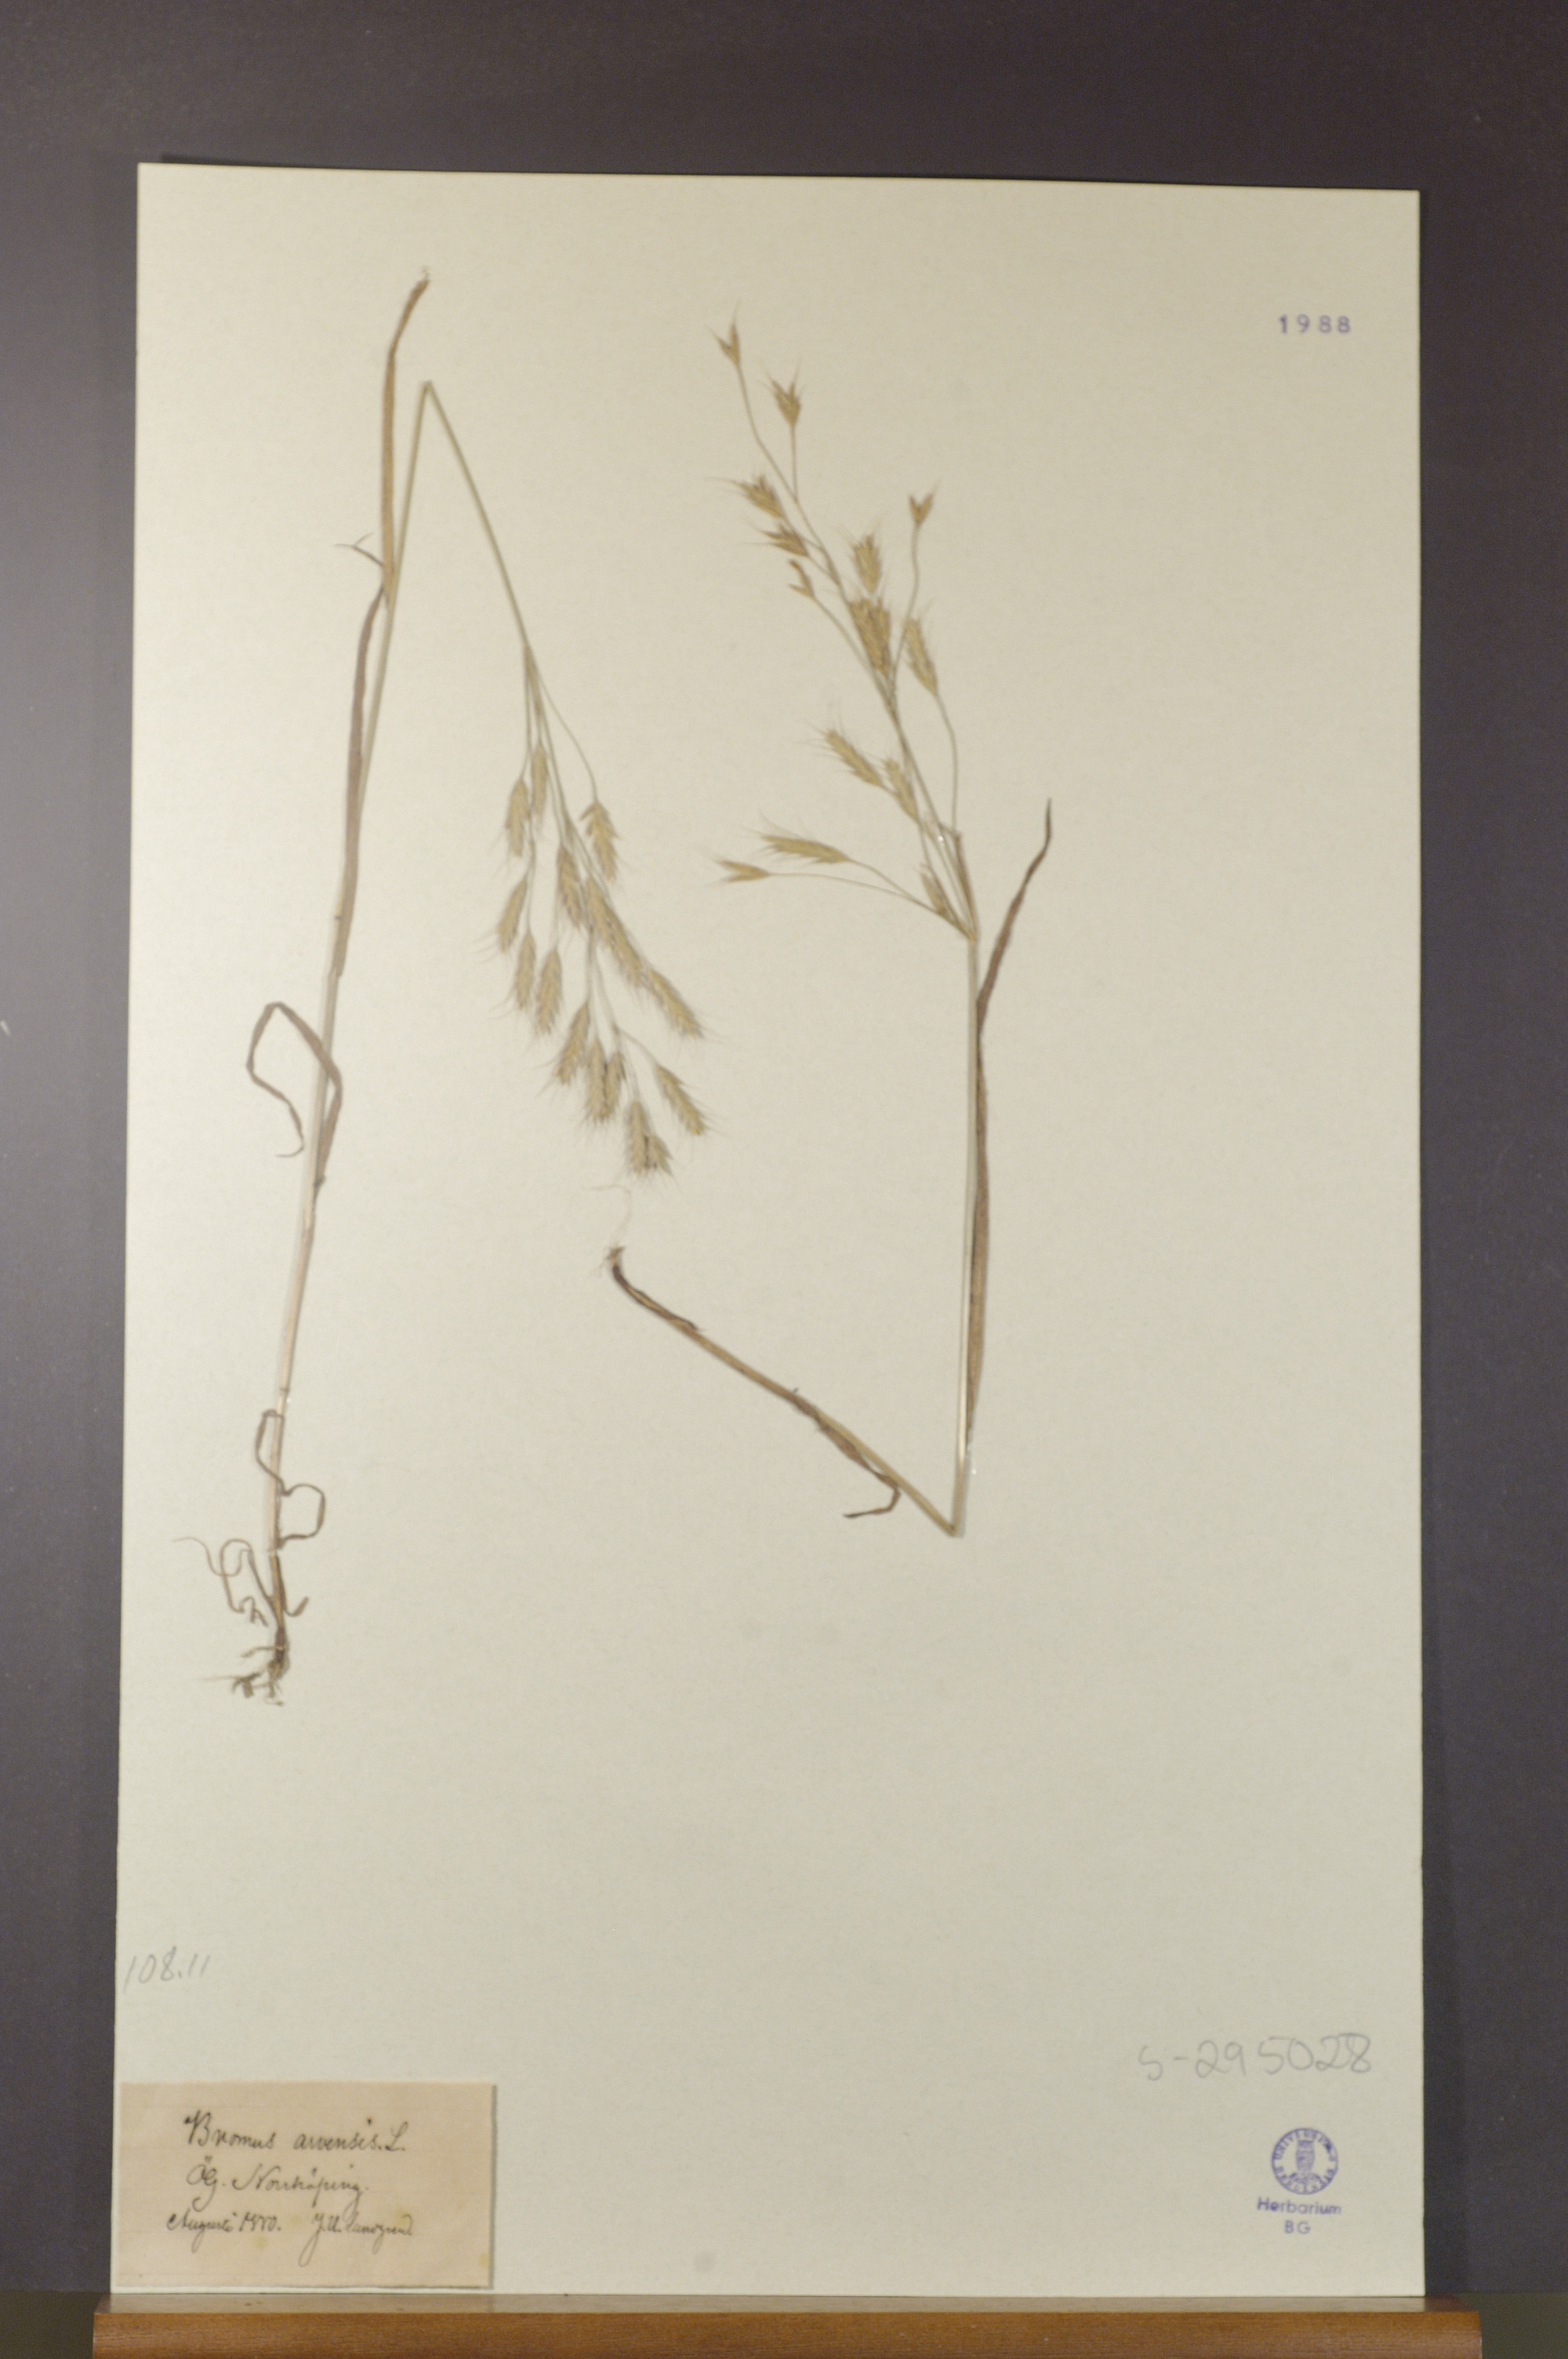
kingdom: Plantae
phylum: Tracheophyta
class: Liliopsida
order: Poales
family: Poaceae
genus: Bromus
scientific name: Bromus arvensis
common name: Field brome
